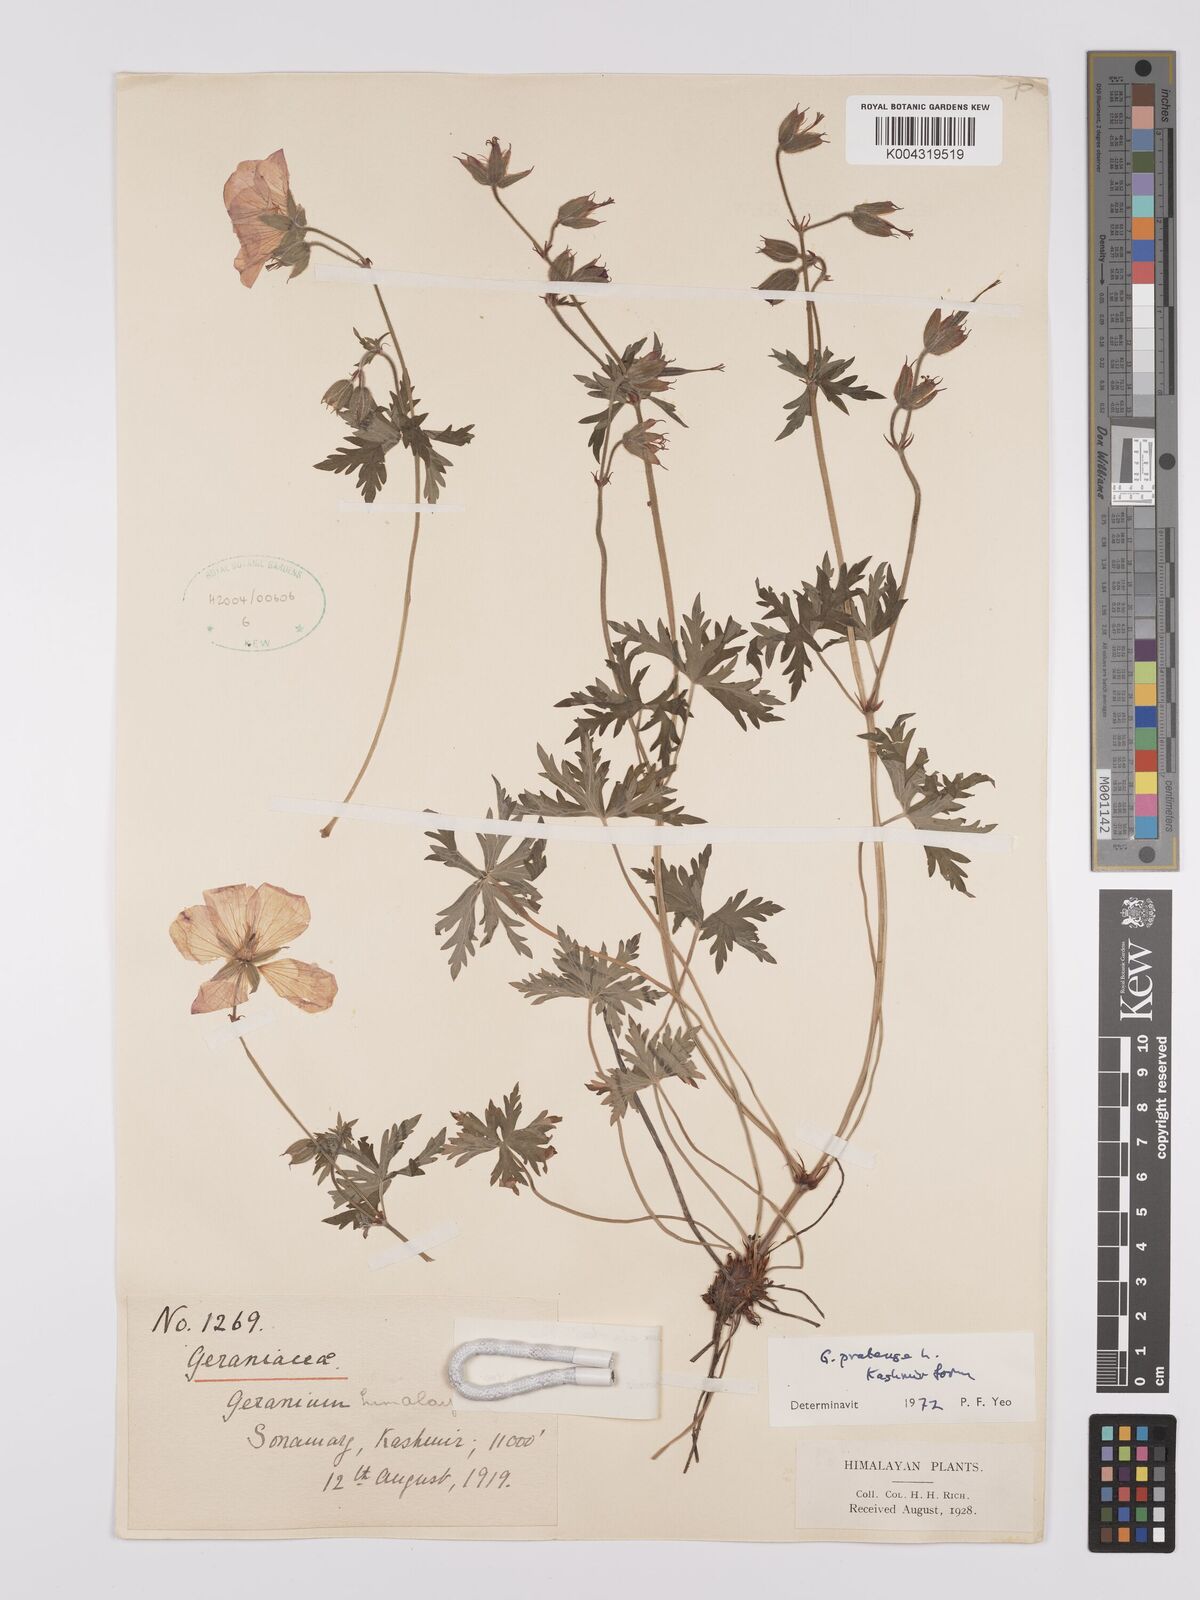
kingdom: Plantae
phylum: Tracheophyta
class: Magnoliopsida
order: Geraniales
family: Geraniaceae
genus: Geranium
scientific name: Geranium clarkei
